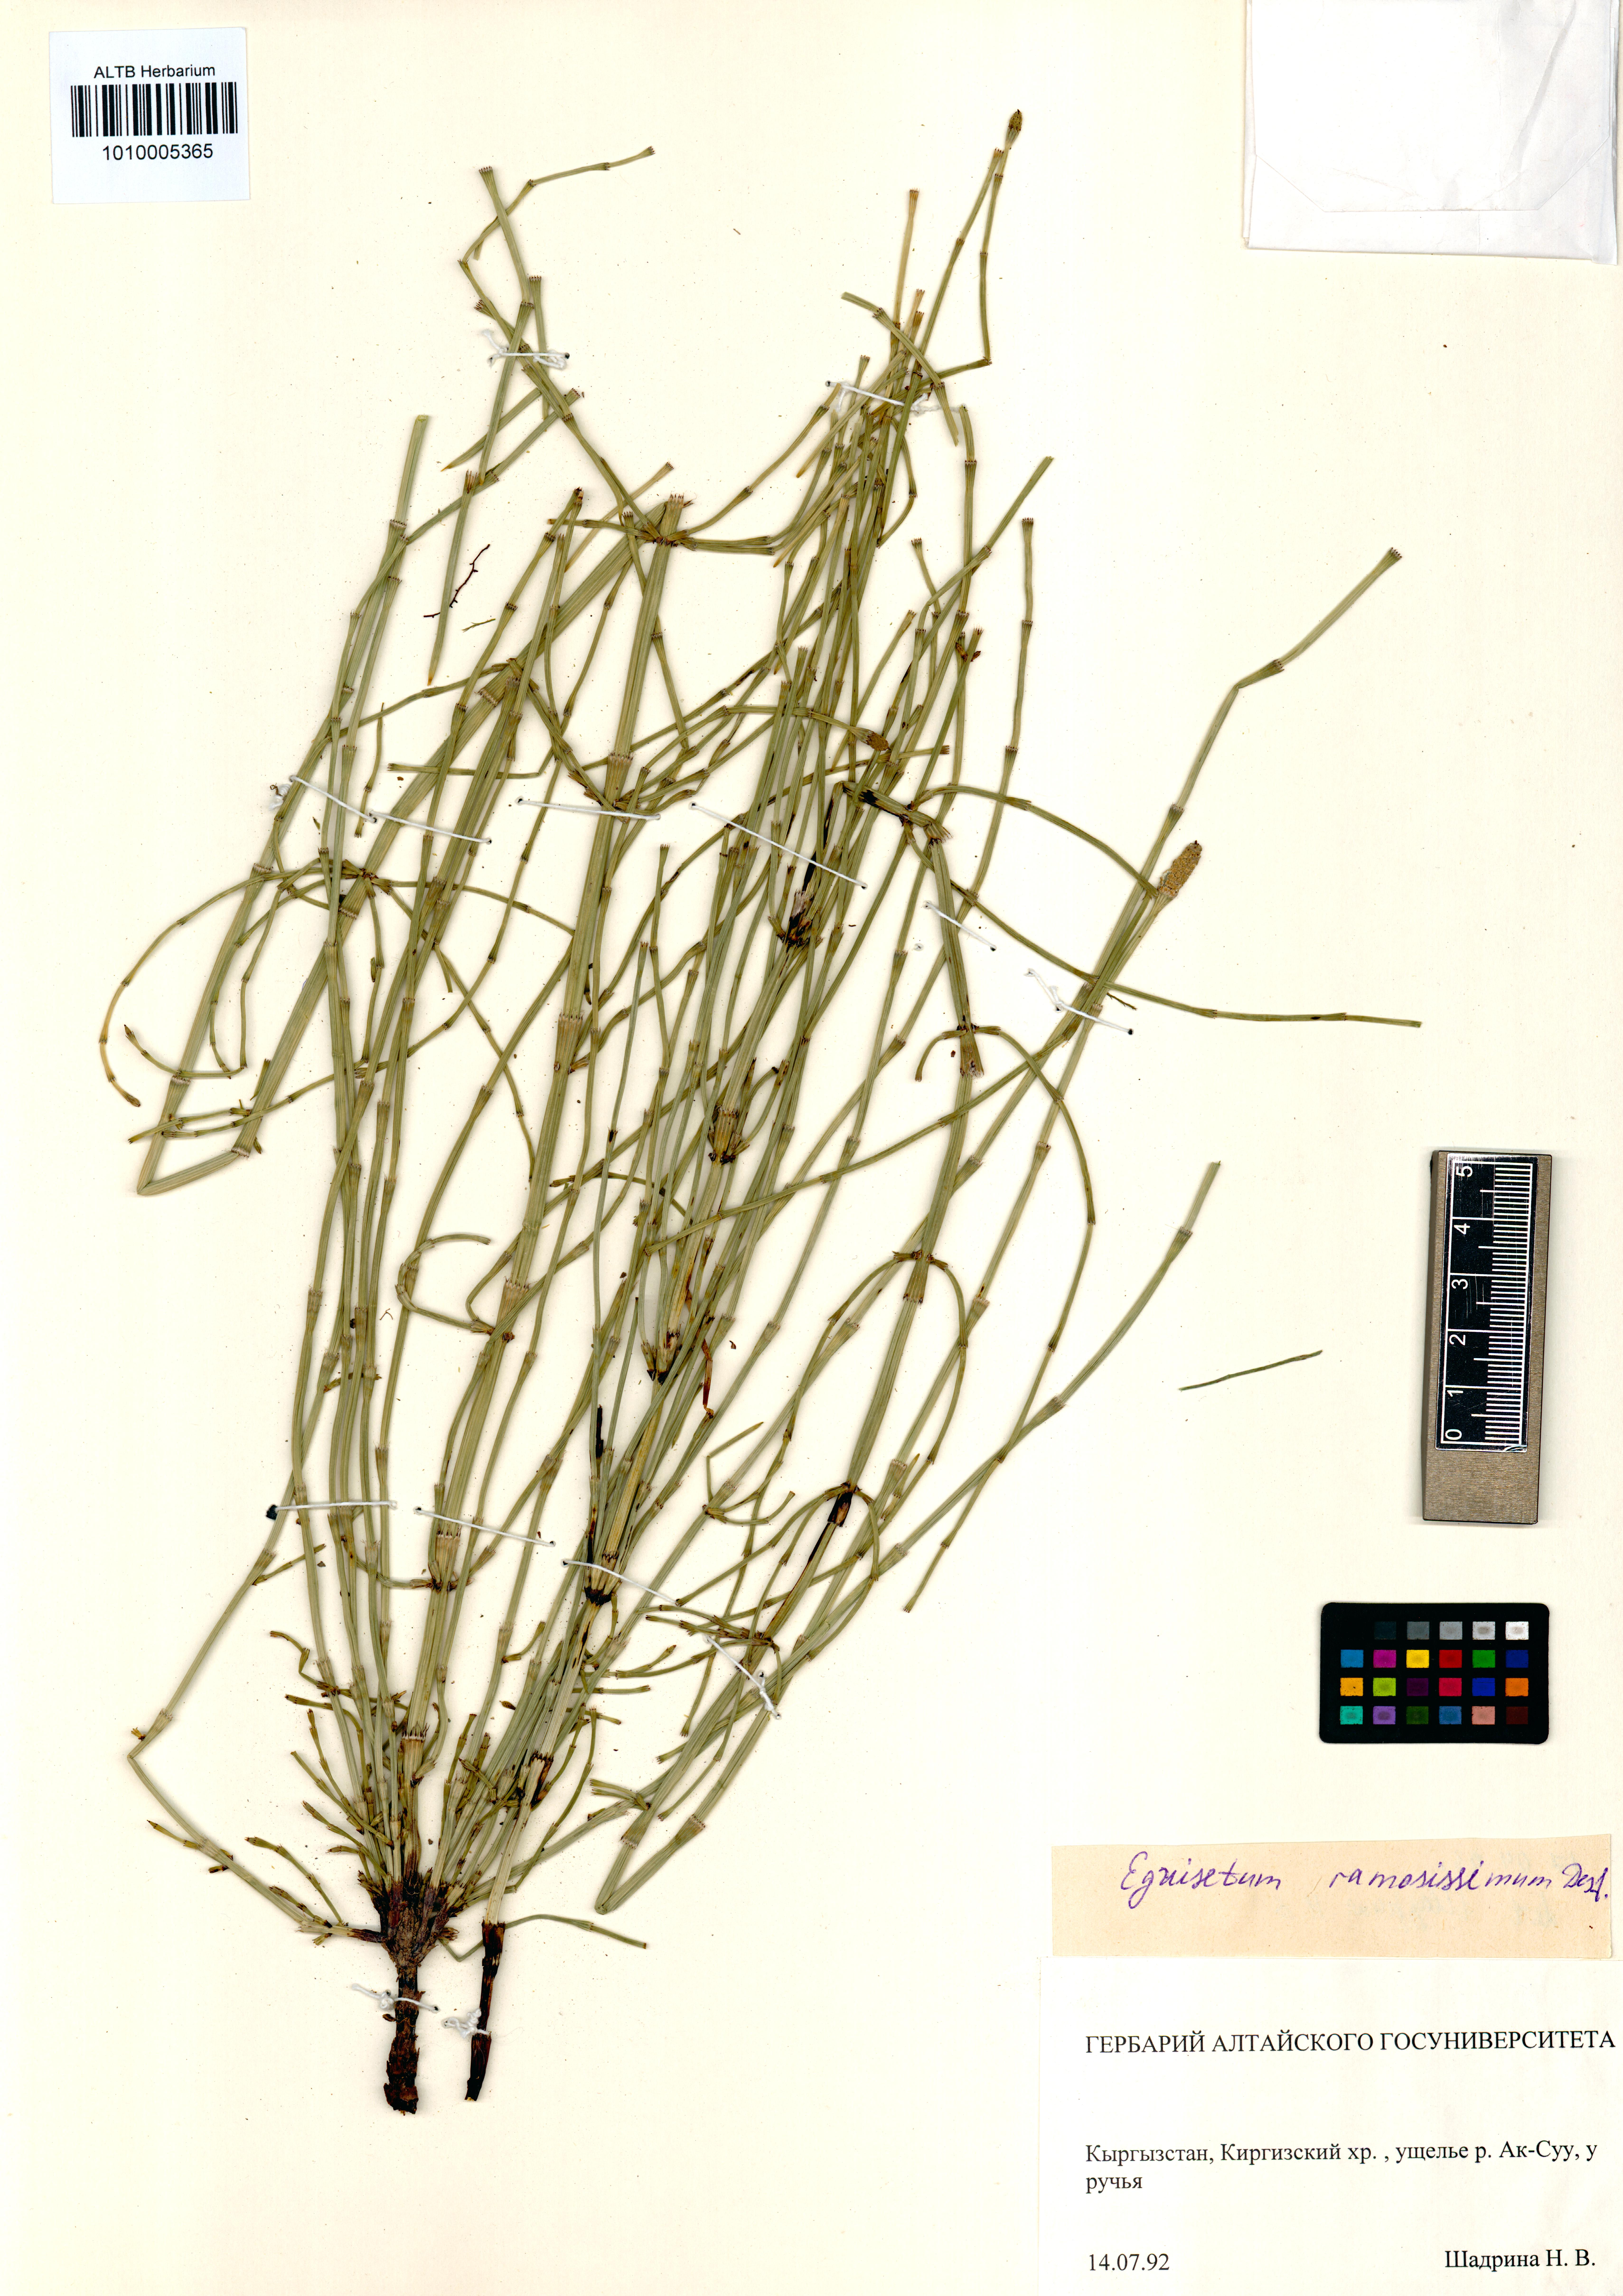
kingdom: Plantae
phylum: Tracheophyta
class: Polypodiopsida
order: Equisetales
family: Equisetaceae
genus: Equisetum
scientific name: Equisetum ramosissimum
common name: Branched horsetail
